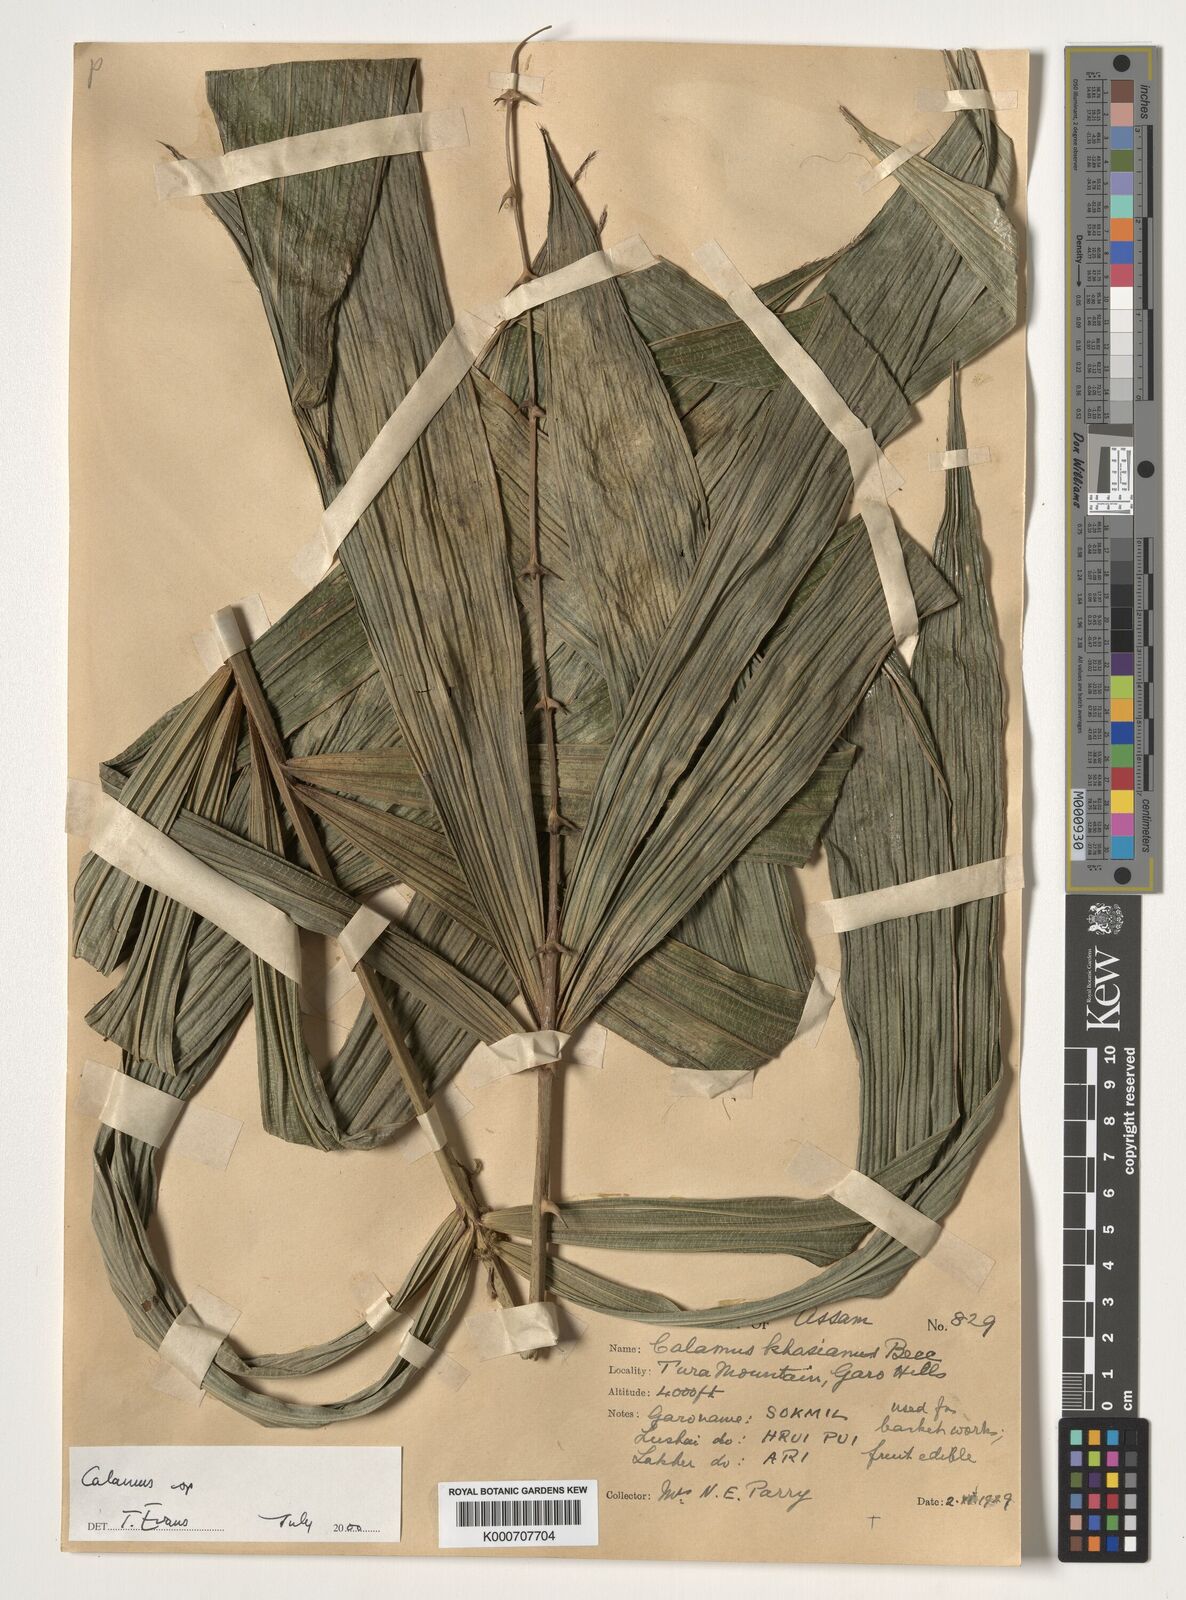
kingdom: Plantae
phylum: Tracheophyta
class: Liliopsida
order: Arecales
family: Arecaceae
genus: Calamus
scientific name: Calamus
